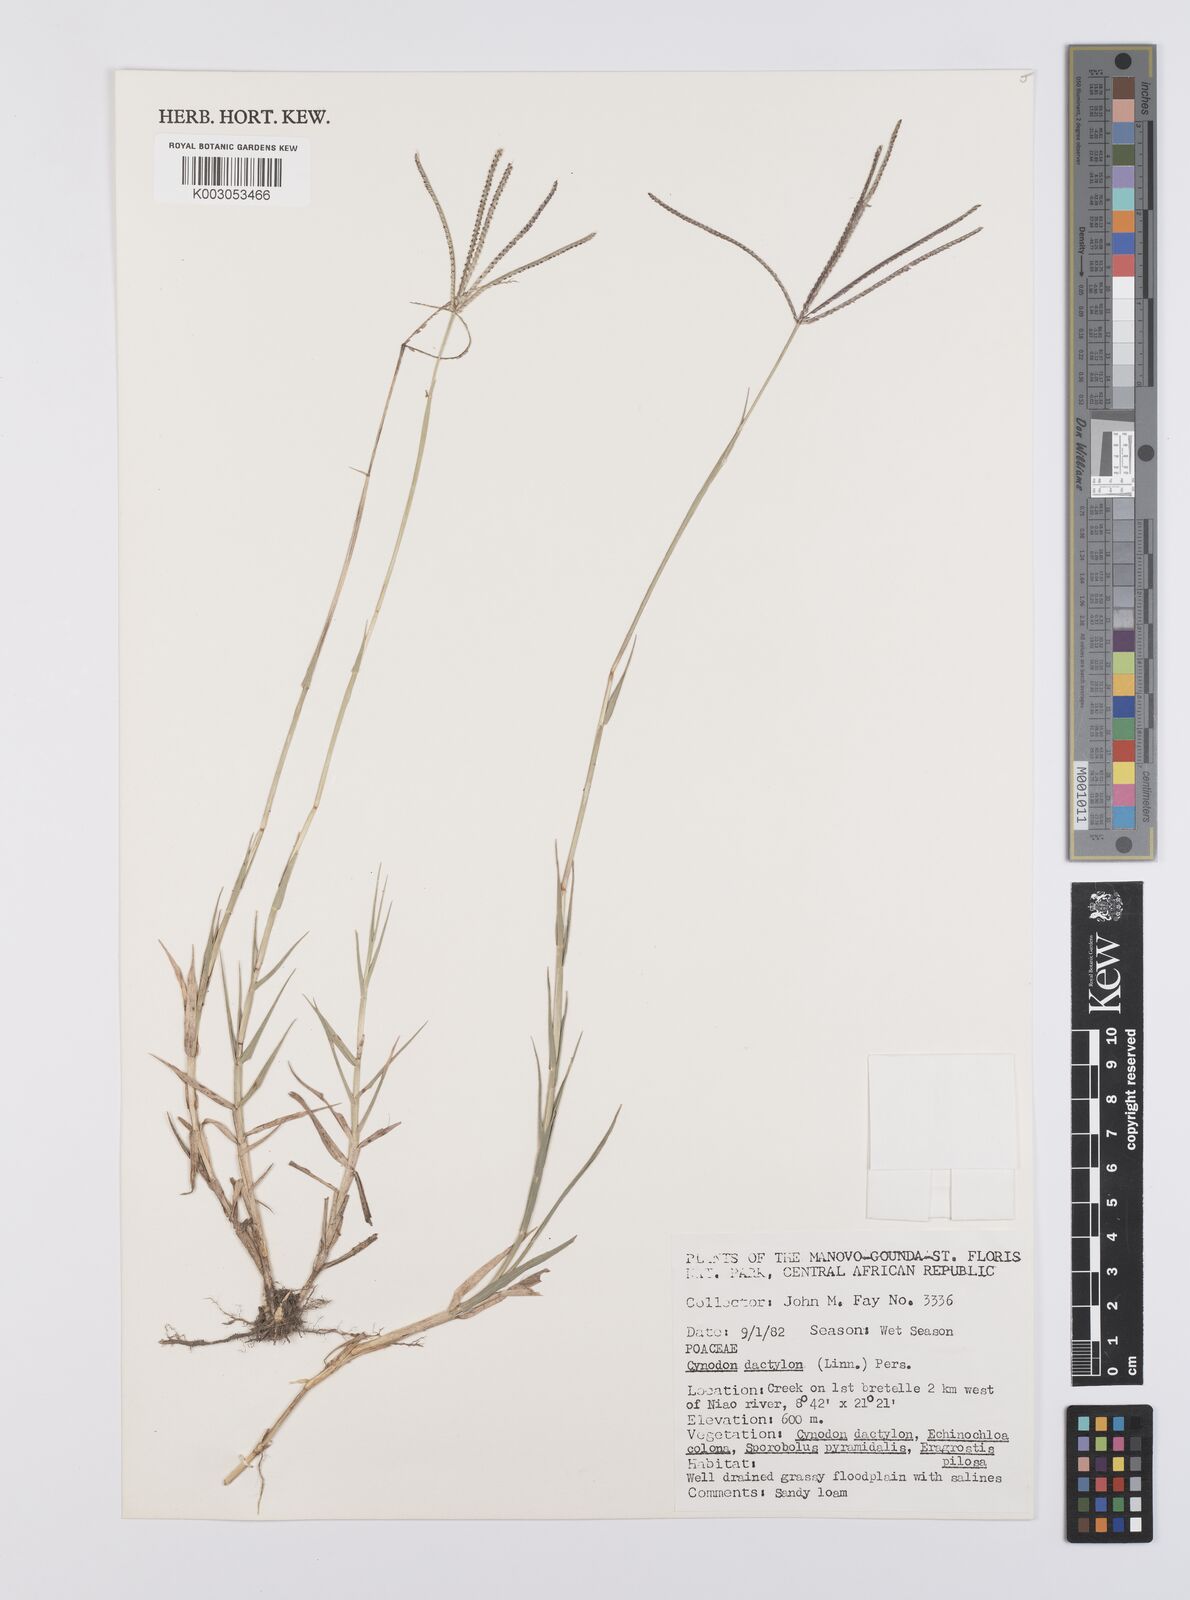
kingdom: Plantae
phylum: Tracheophyta
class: Liliopsida
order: Poales
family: Poaceae
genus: Cynodon
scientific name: Cynodon dactylon
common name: Bermuda grass
